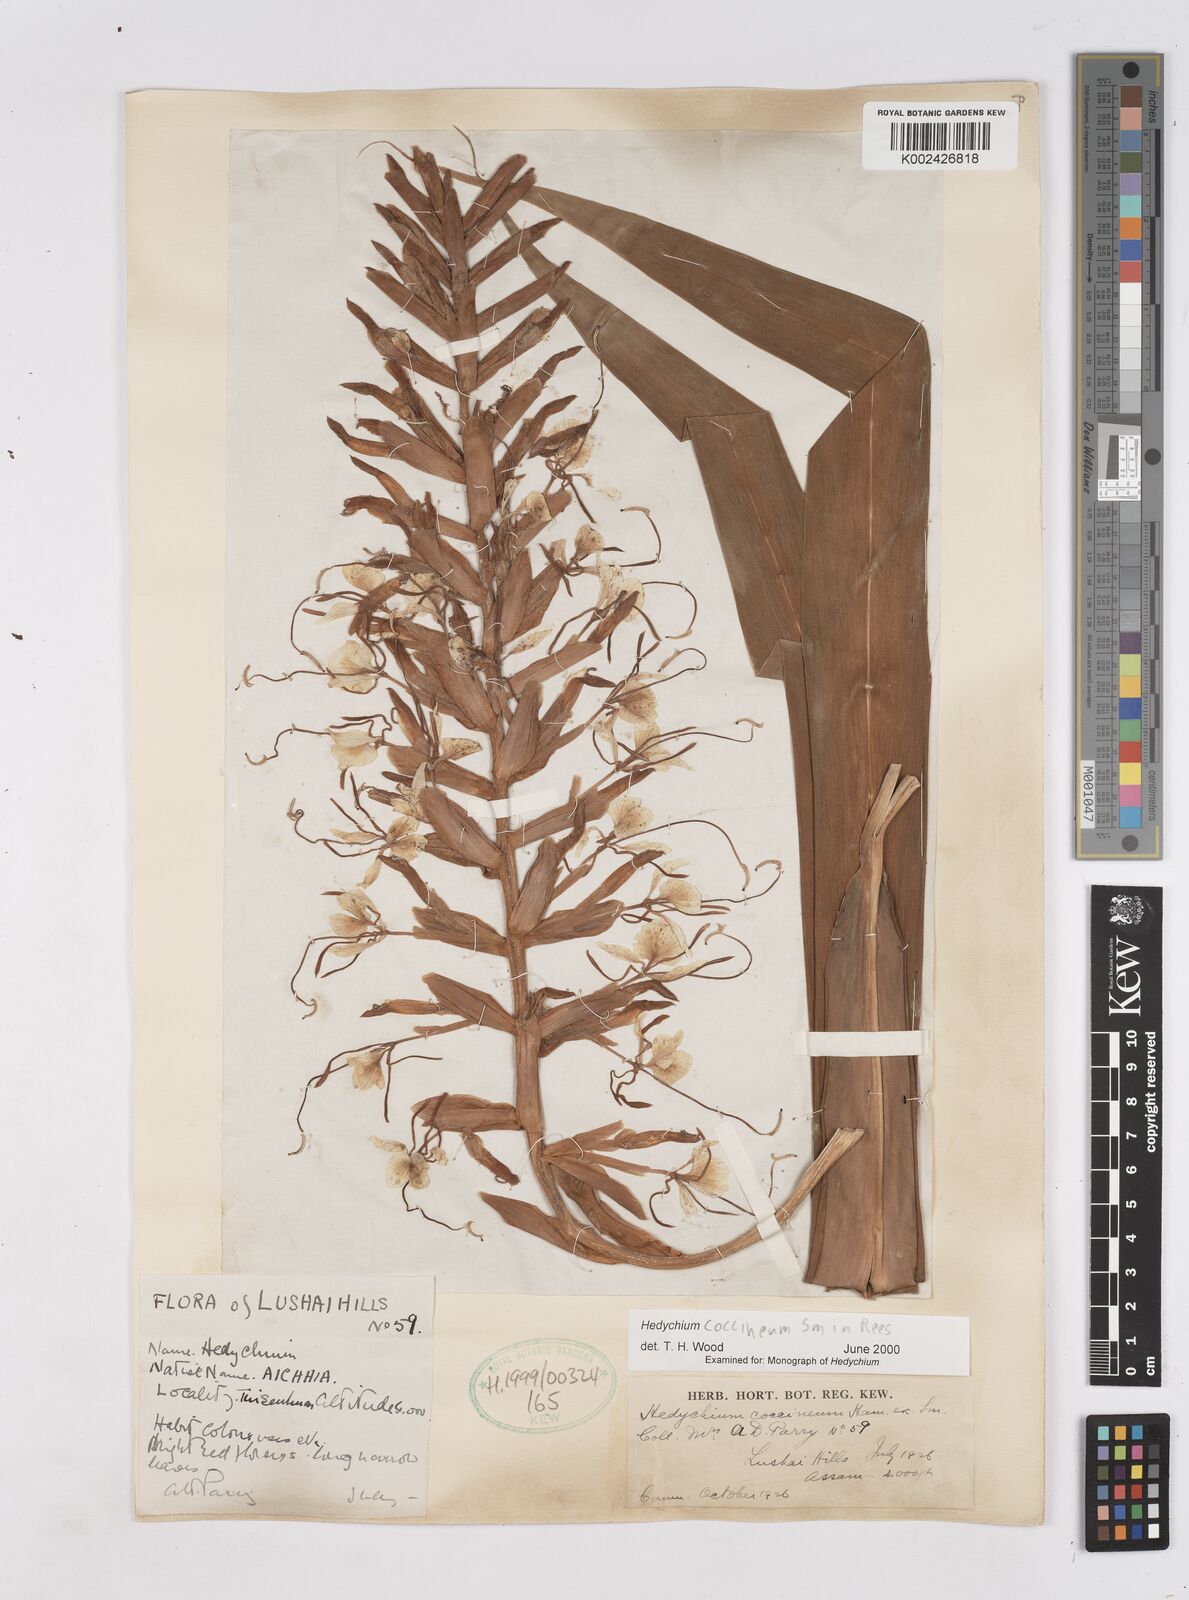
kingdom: Plantae
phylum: Tracheophyta
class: Liliopsida
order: Zingiberales
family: Zingiberaceae
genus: Hedychium
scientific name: Hedychium coccineum
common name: Red ginger-lily
